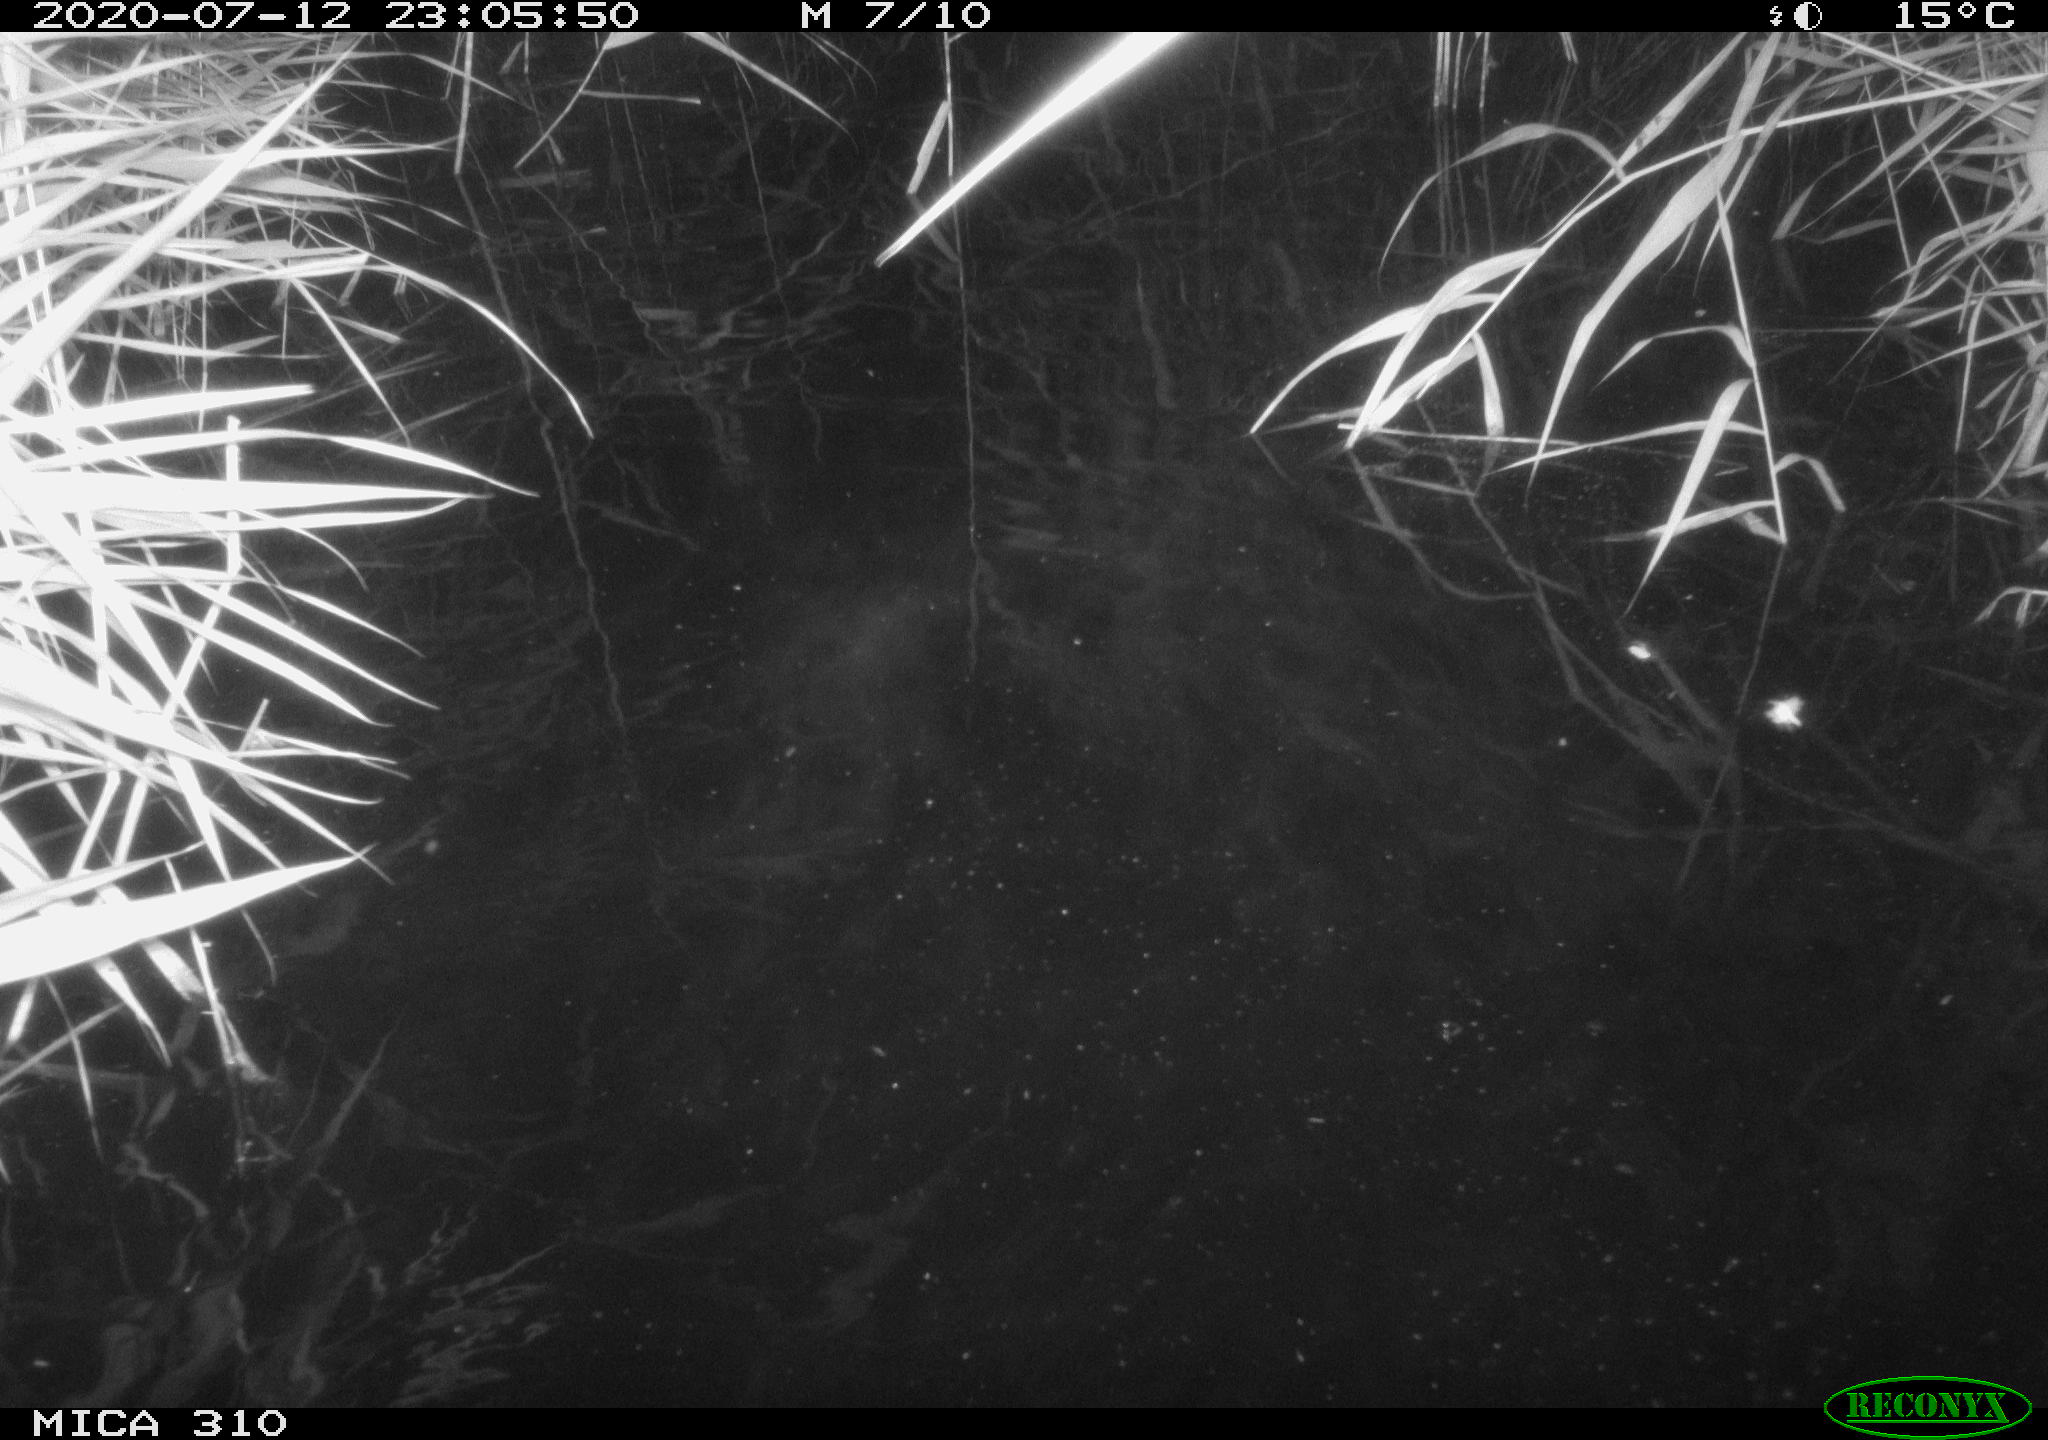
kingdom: Animalia
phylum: Chordata
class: Aves
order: Anseriformes
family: Anatidae
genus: Anas
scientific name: Anas platyrhynchos
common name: Mallard
